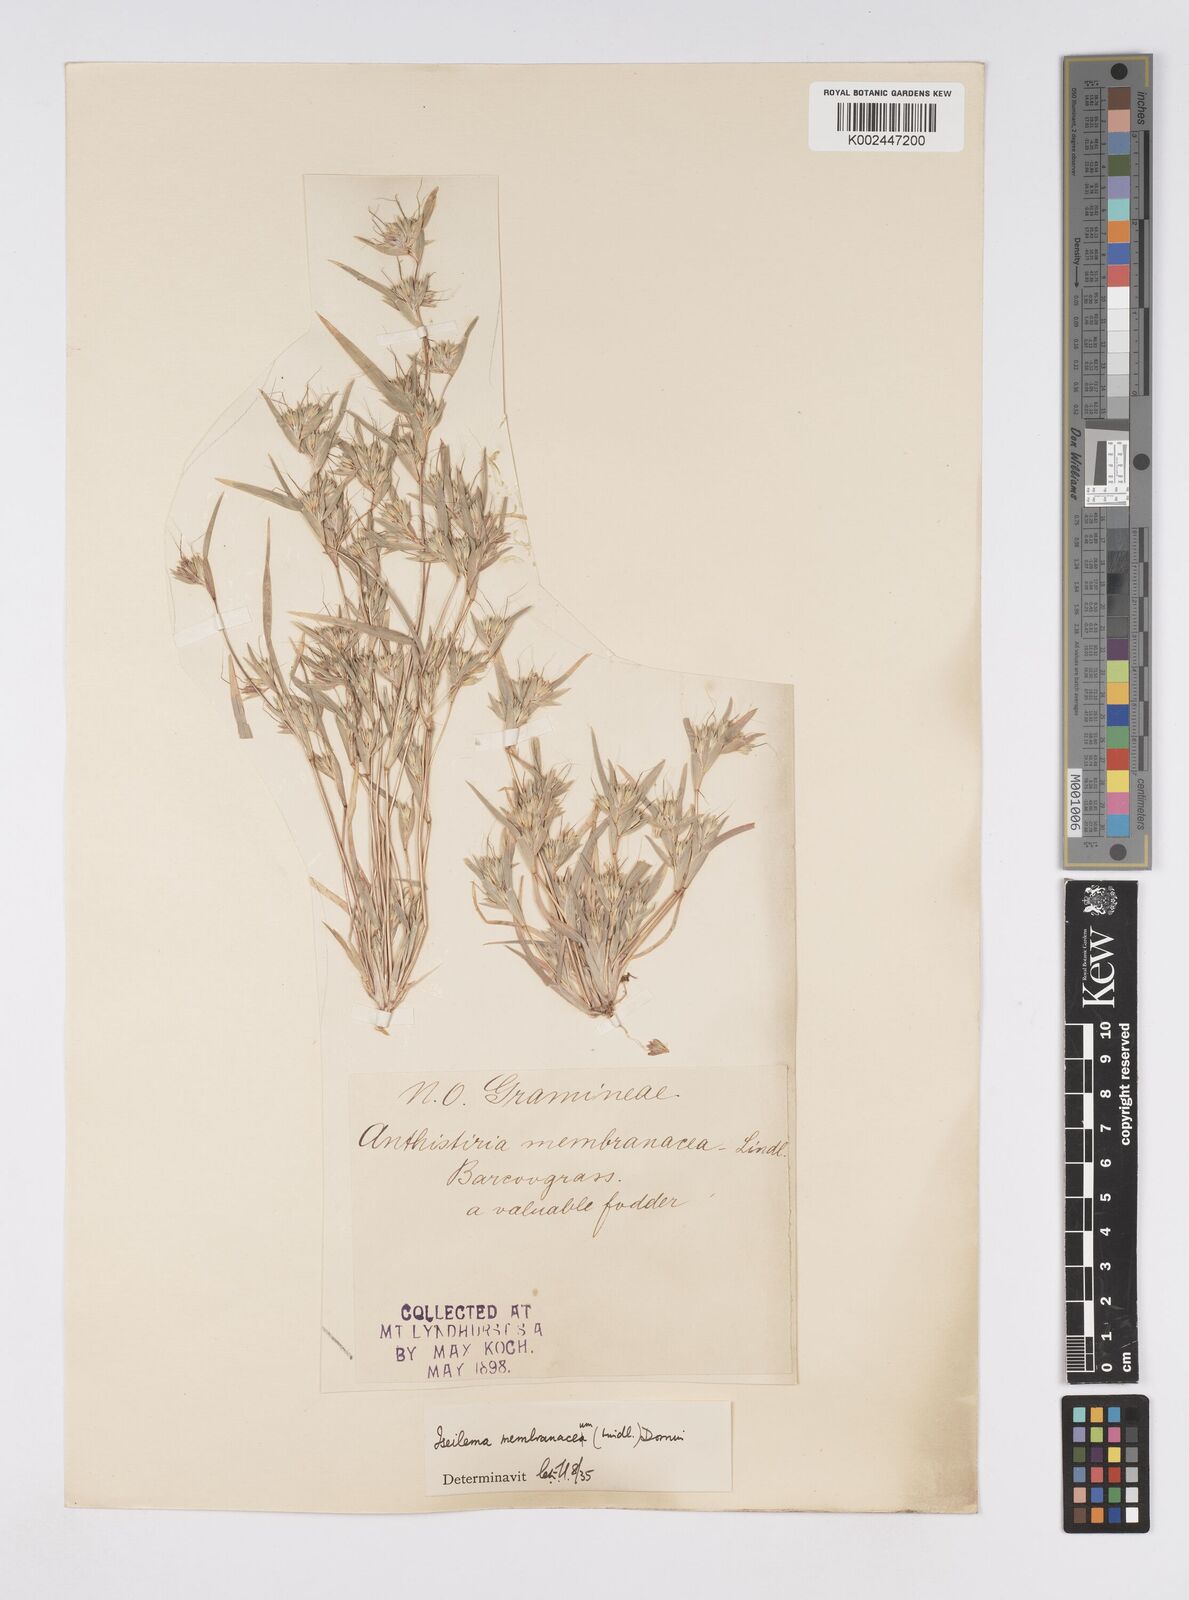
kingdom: Plantae
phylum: Tracheophyta
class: Liliopsida
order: Poales
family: Poaceae
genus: Iseilema
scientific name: Iseilema membranaceum
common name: Small flinders grass
